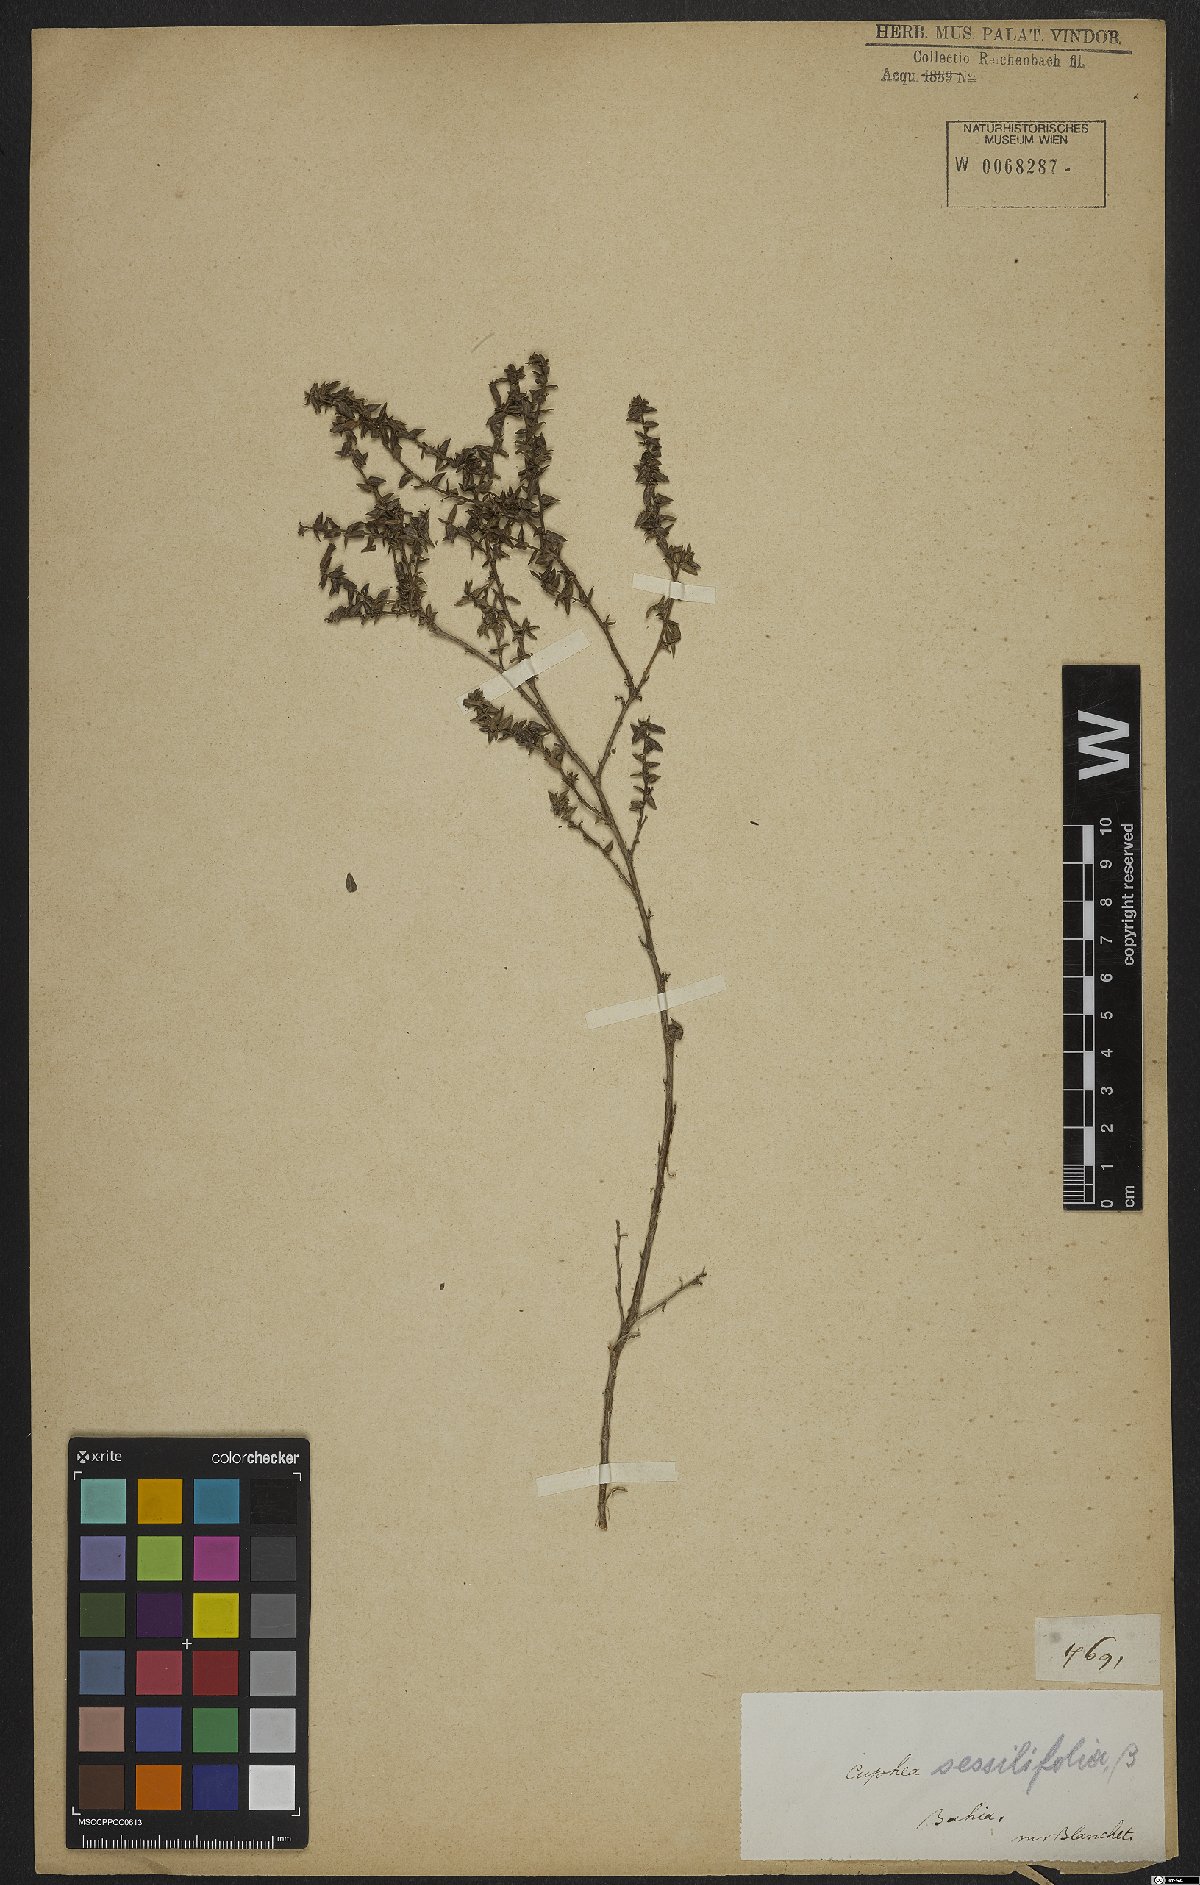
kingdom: Plantae
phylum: Tracheophyta
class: Magnoliopsida
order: Myrtales
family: Lythraceae
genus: Cuphea
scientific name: Cuphea sessilifolia
